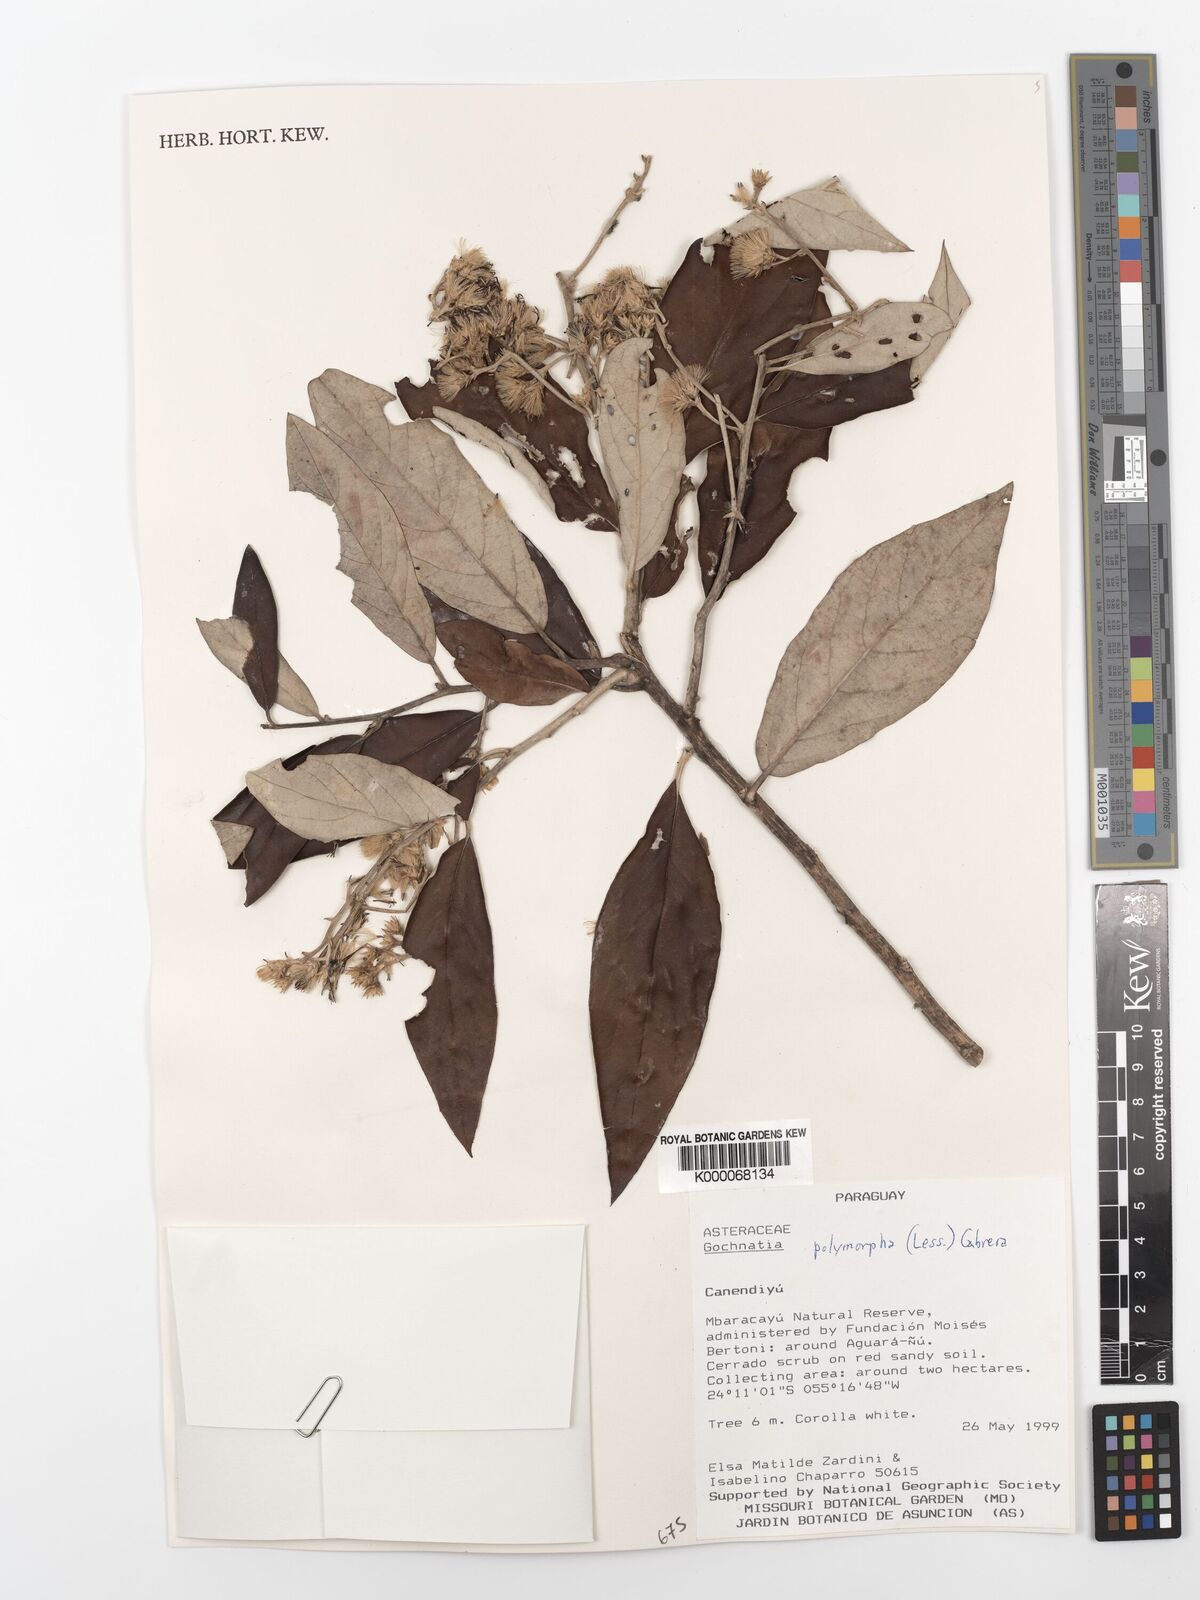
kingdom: Plantae
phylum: Tracheophyta
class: Magnoliopsida
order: Asterales
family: Asteraceae
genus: Moquiniastrum
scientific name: Moquiniastrum polymorphum
